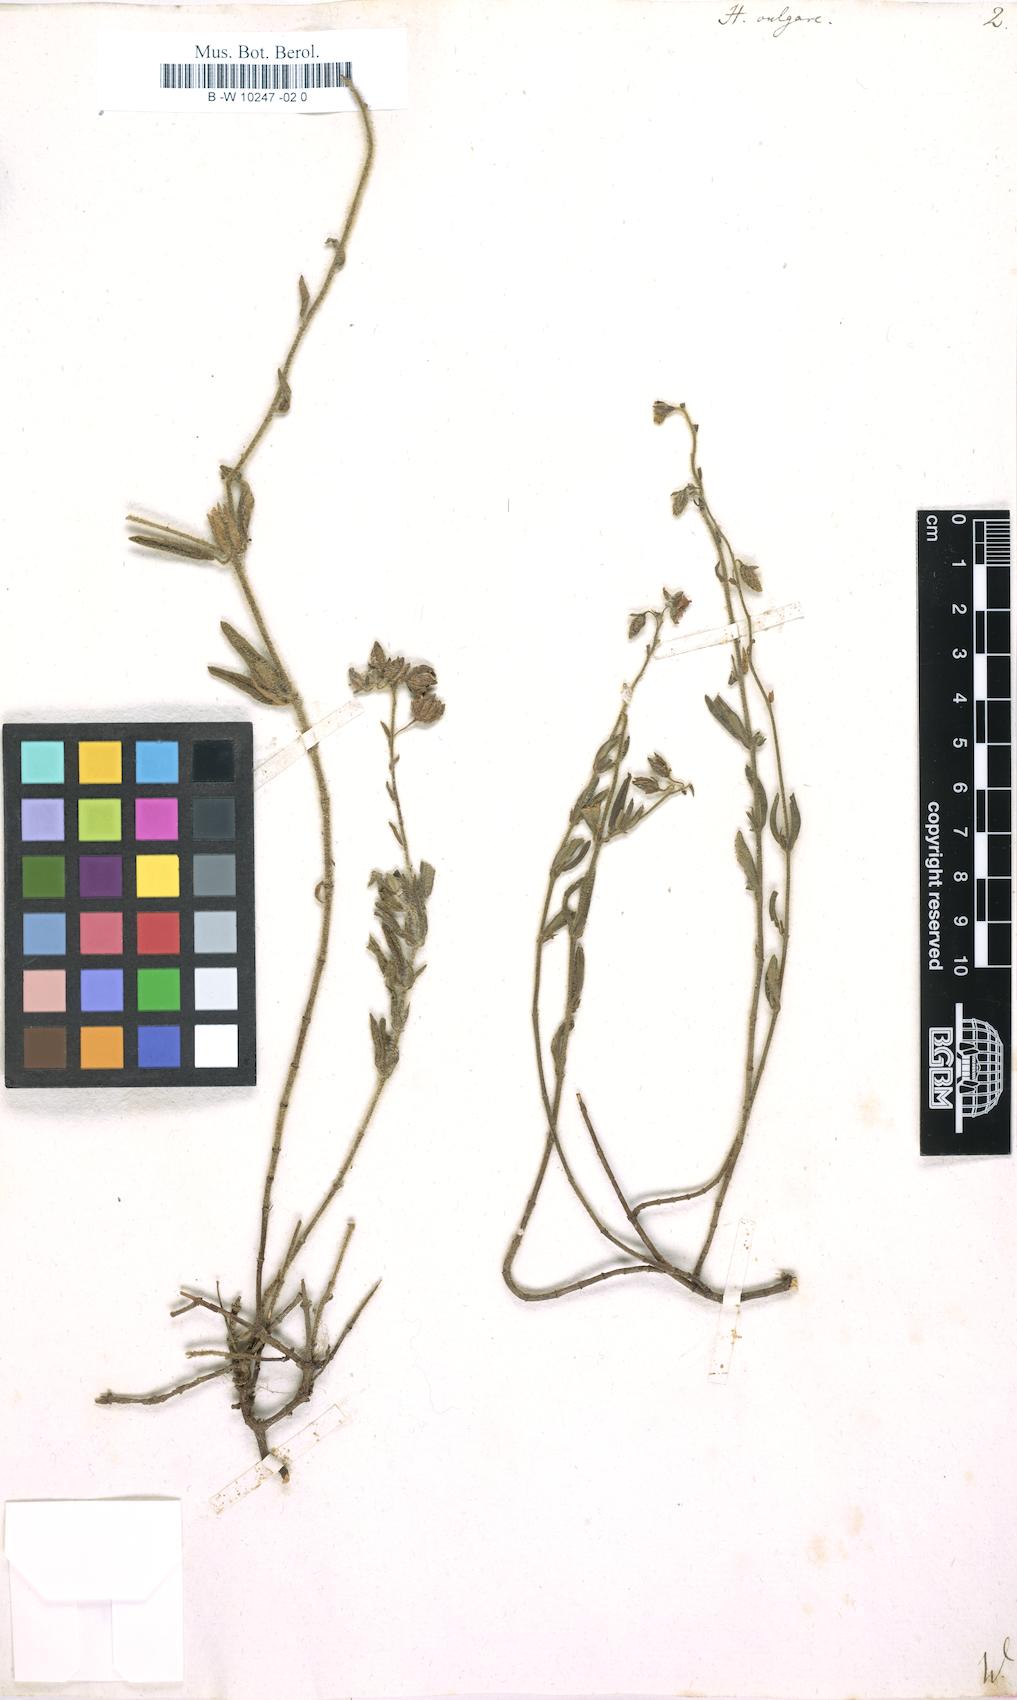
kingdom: Plantae
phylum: Tracheophyta
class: Magnoliopsida
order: Malvales
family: Cistaceae
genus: Helianthemum
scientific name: Helianthemum nummularium
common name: Common rock-rose
